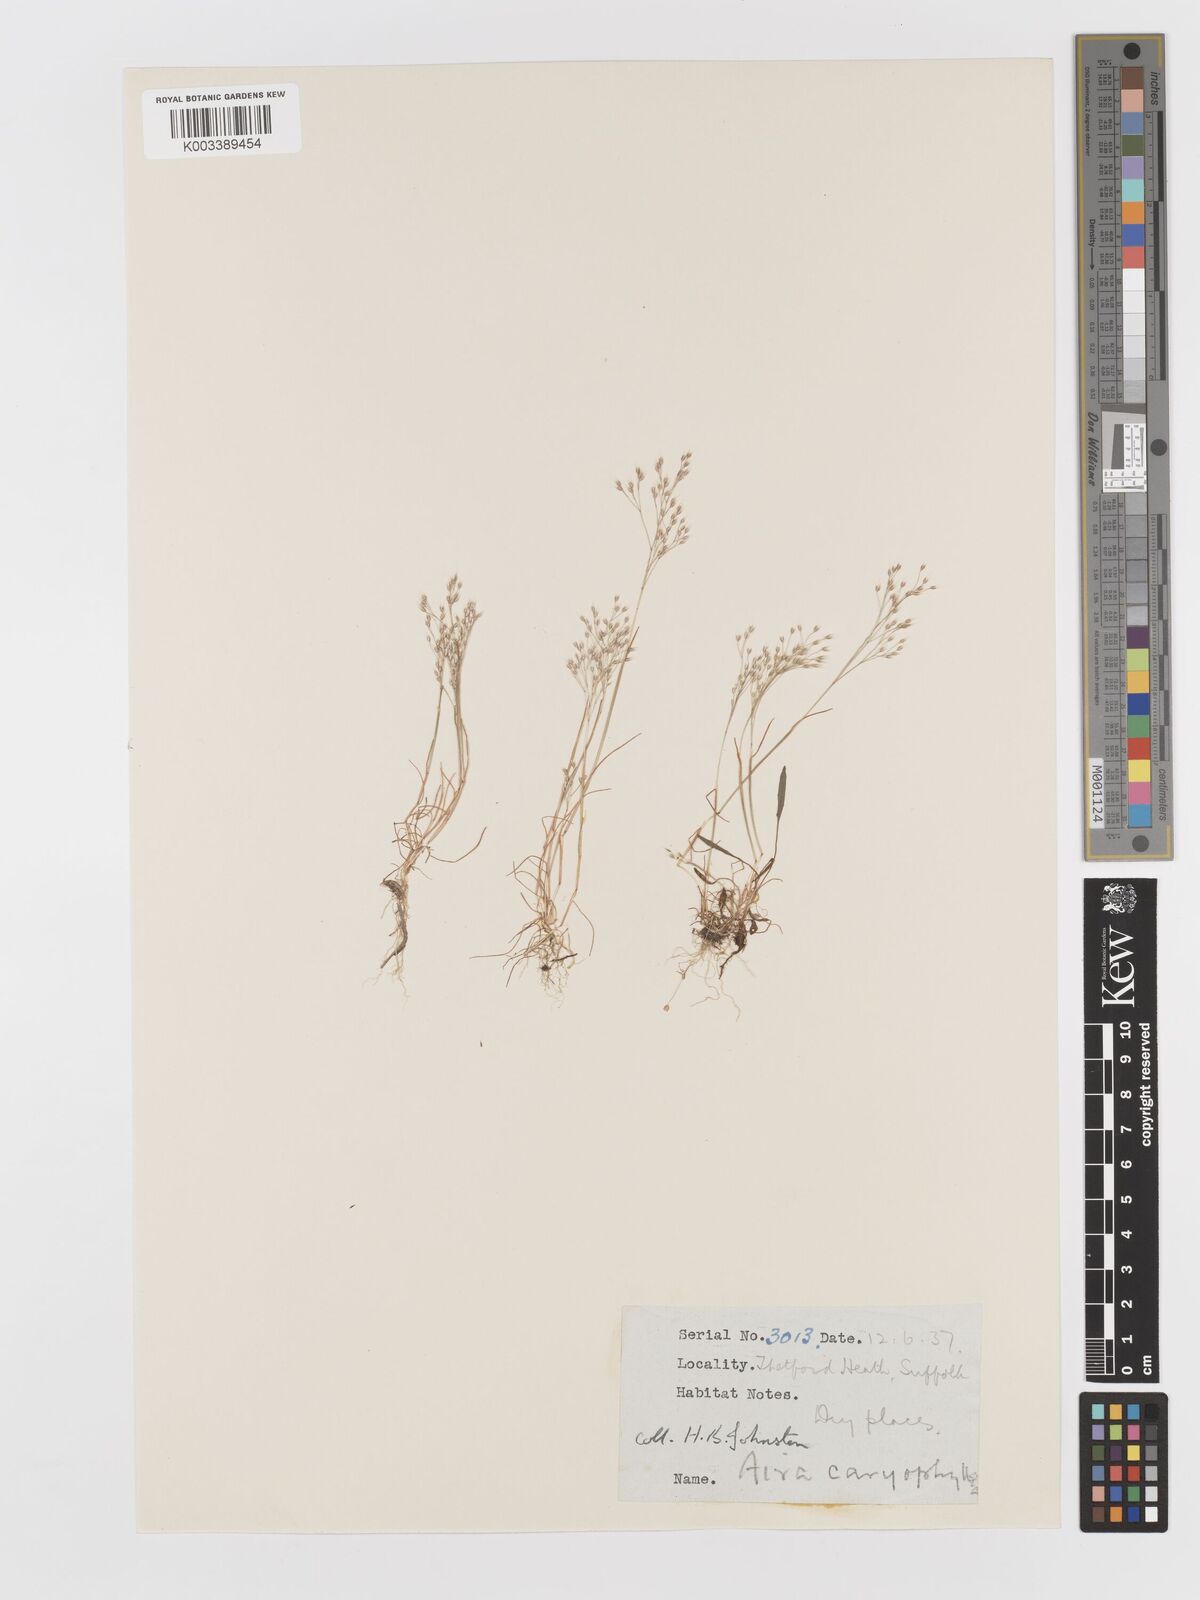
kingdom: Plantae
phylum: Tracheophyta
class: Liliopsida
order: Poales
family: Poaceae
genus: Aira
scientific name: Aira caryophyllea
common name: Silver hairgrass
